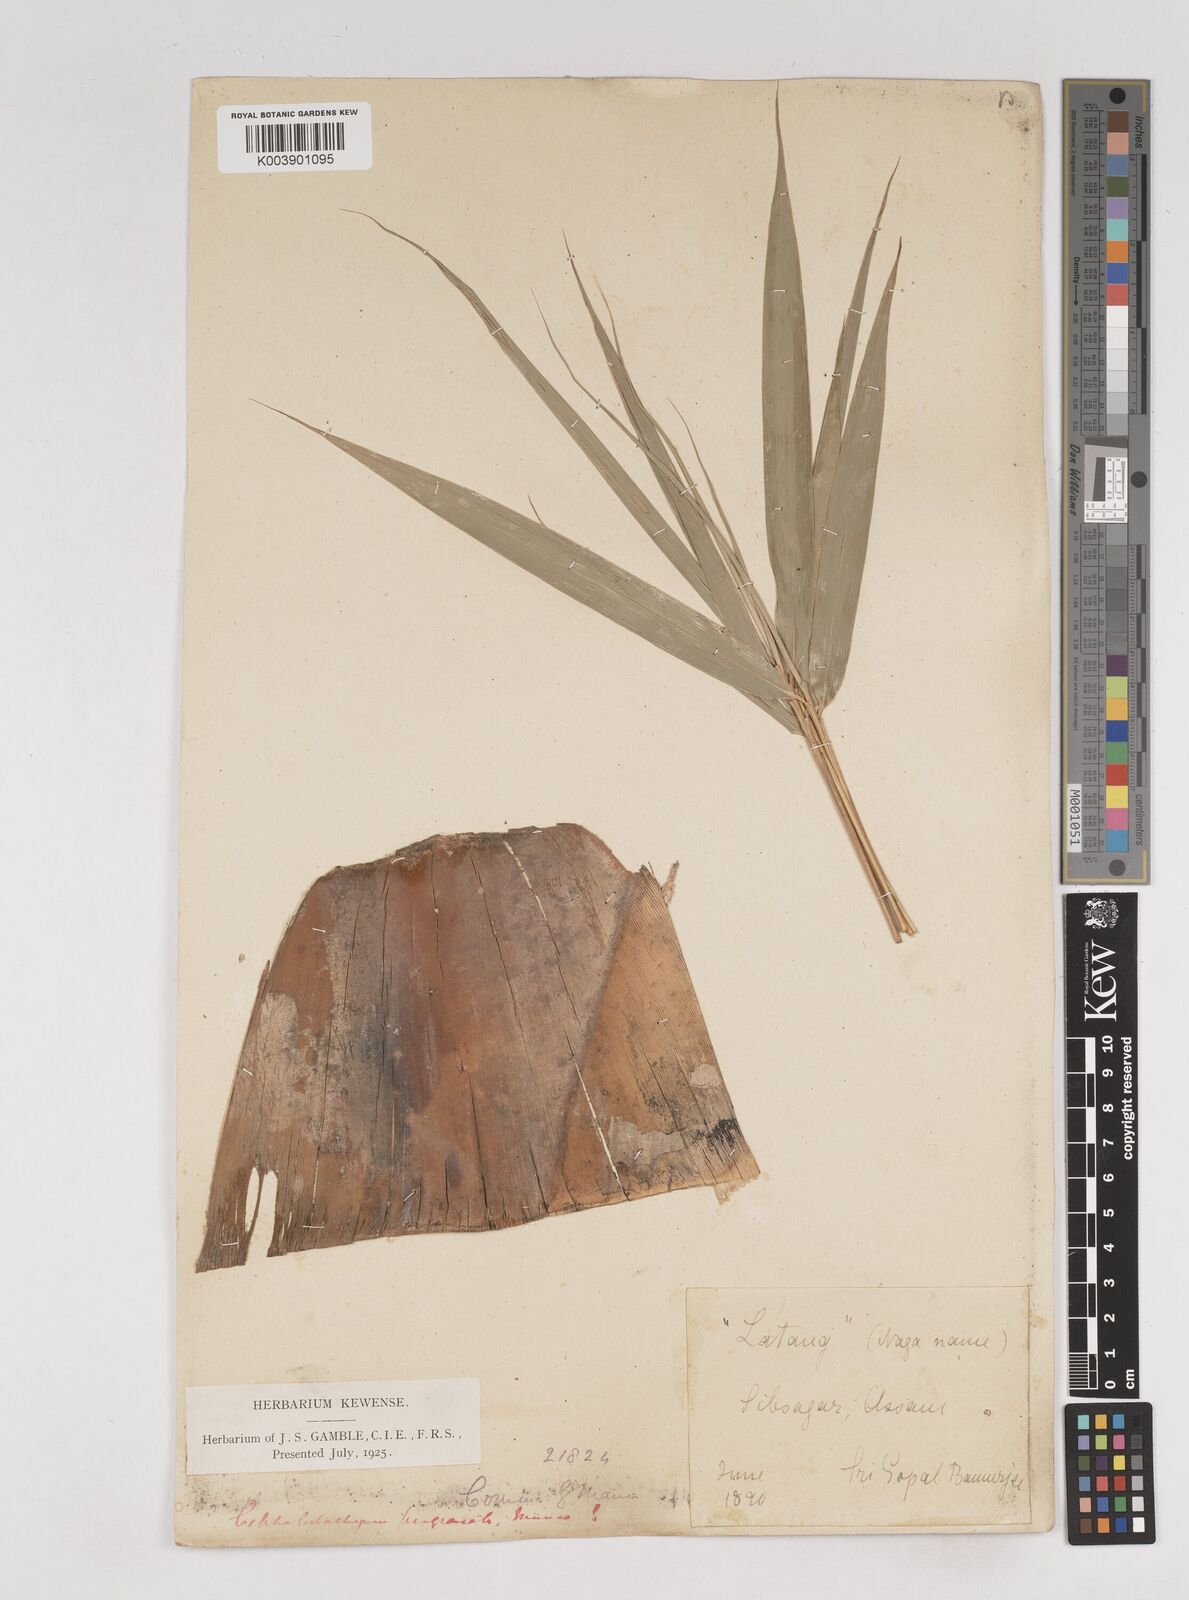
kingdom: Plantae
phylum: Tracheophyta
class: Liliopsida
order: Poales
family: Poaceae
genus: Schizostachyum
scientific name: Schizostachyum pergracile
